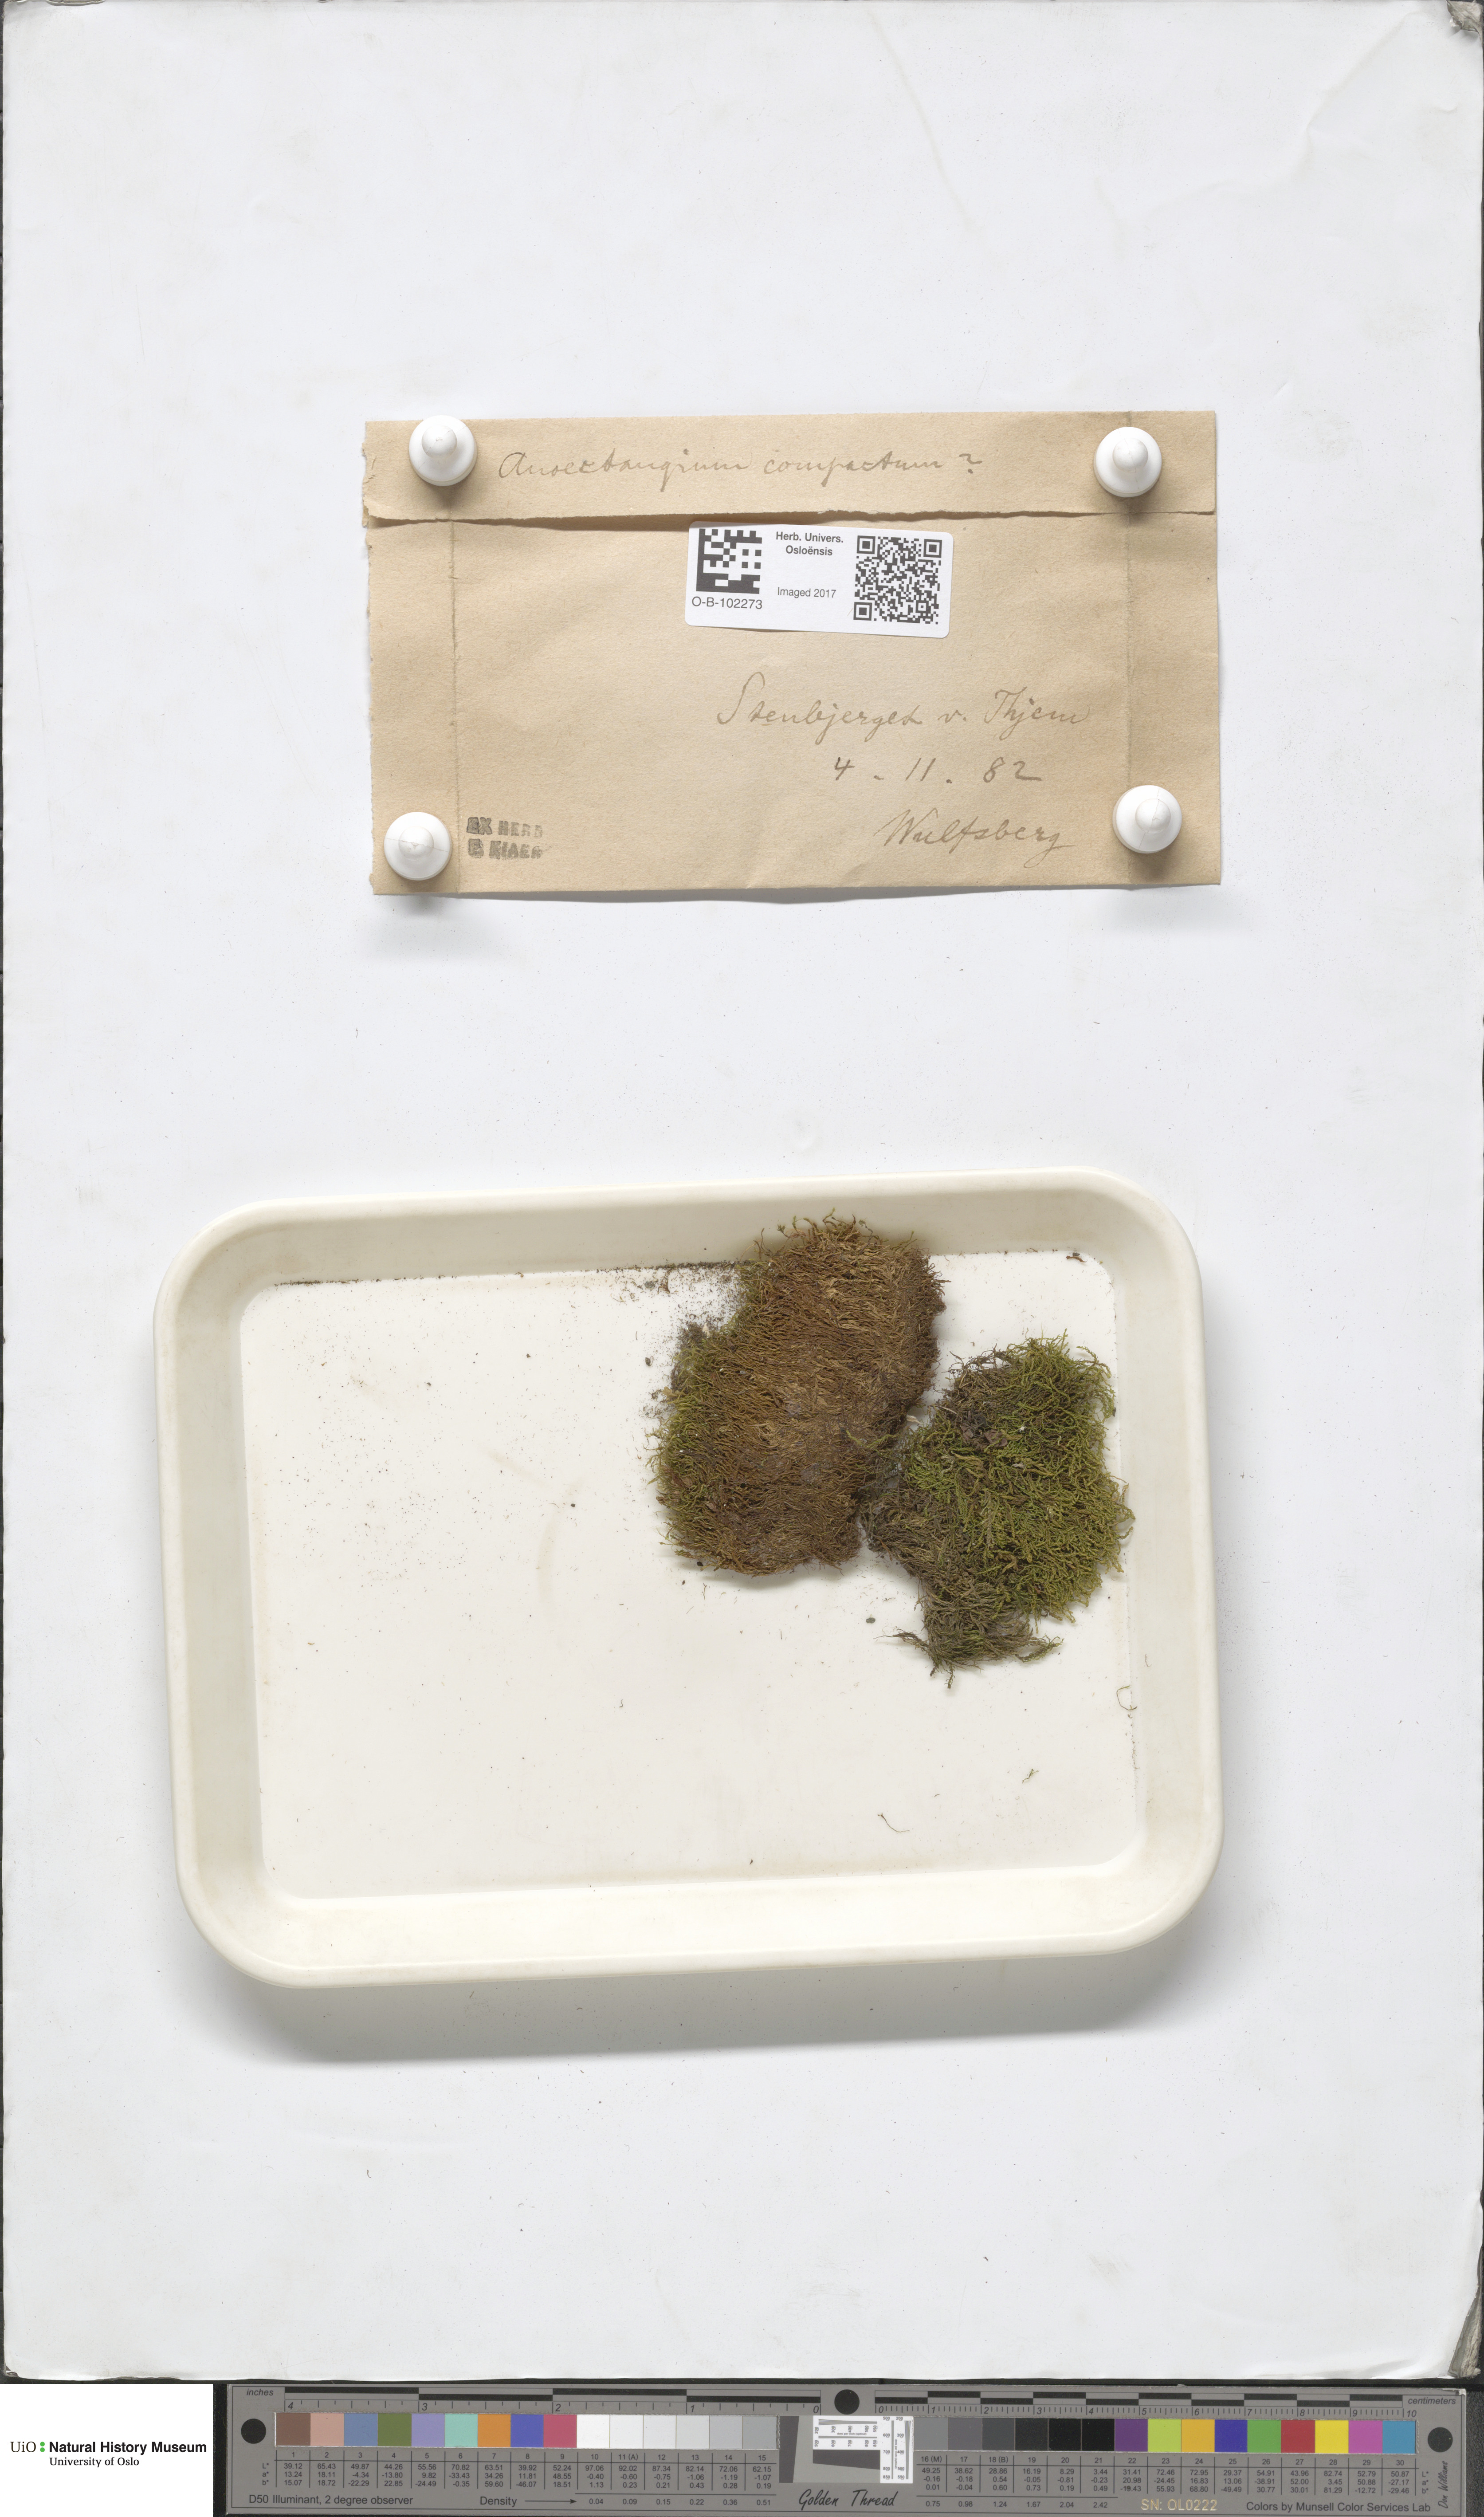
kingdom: Plantae
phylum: Bryophyta
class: Bryopsida
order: Pottiales
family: Pottiaceae
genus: Anoectangium
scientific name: Anoectangium aestivum
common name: Summer-moss
